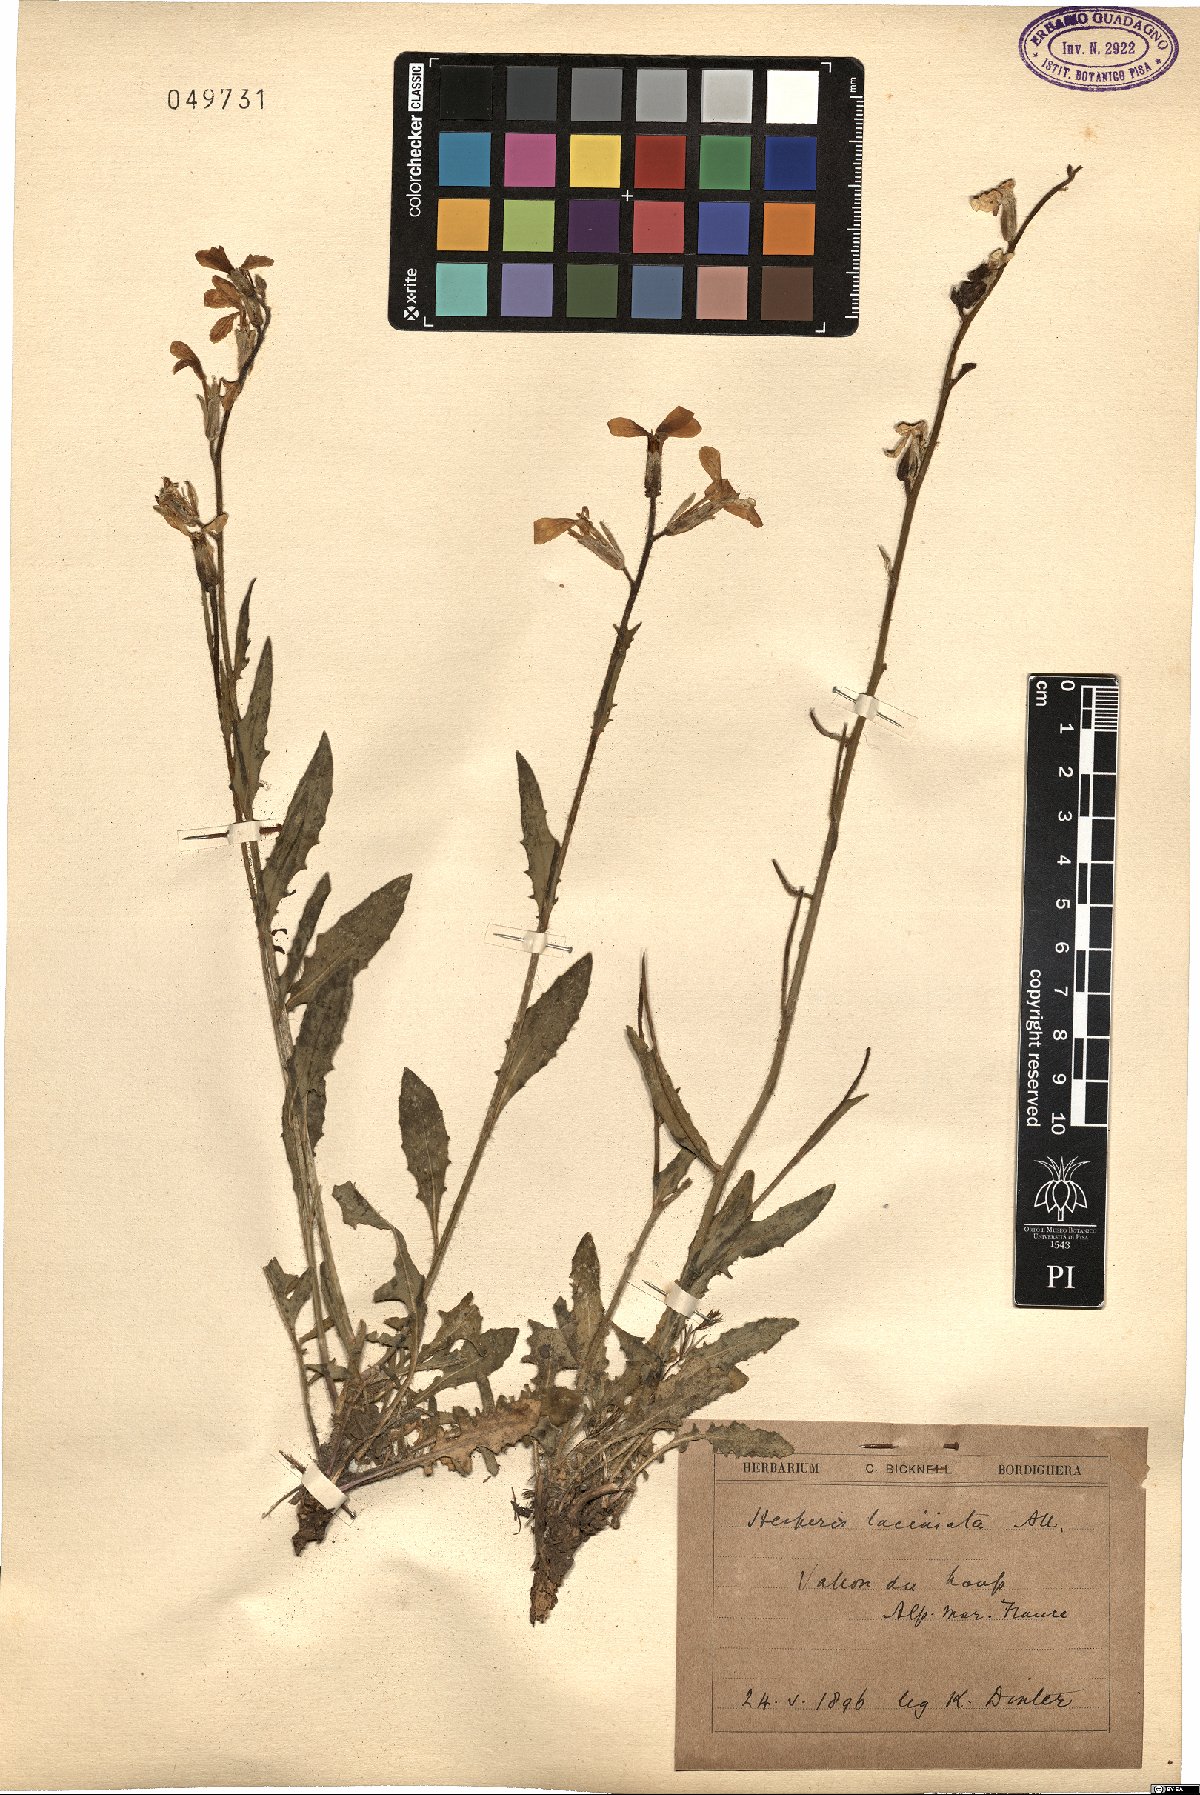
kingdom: Plantae
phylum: Tracheophyta
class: Magnoliopsida
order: Brassicales
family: Brassicaceae
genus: Hesperis
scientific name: Hesperis laciniata
